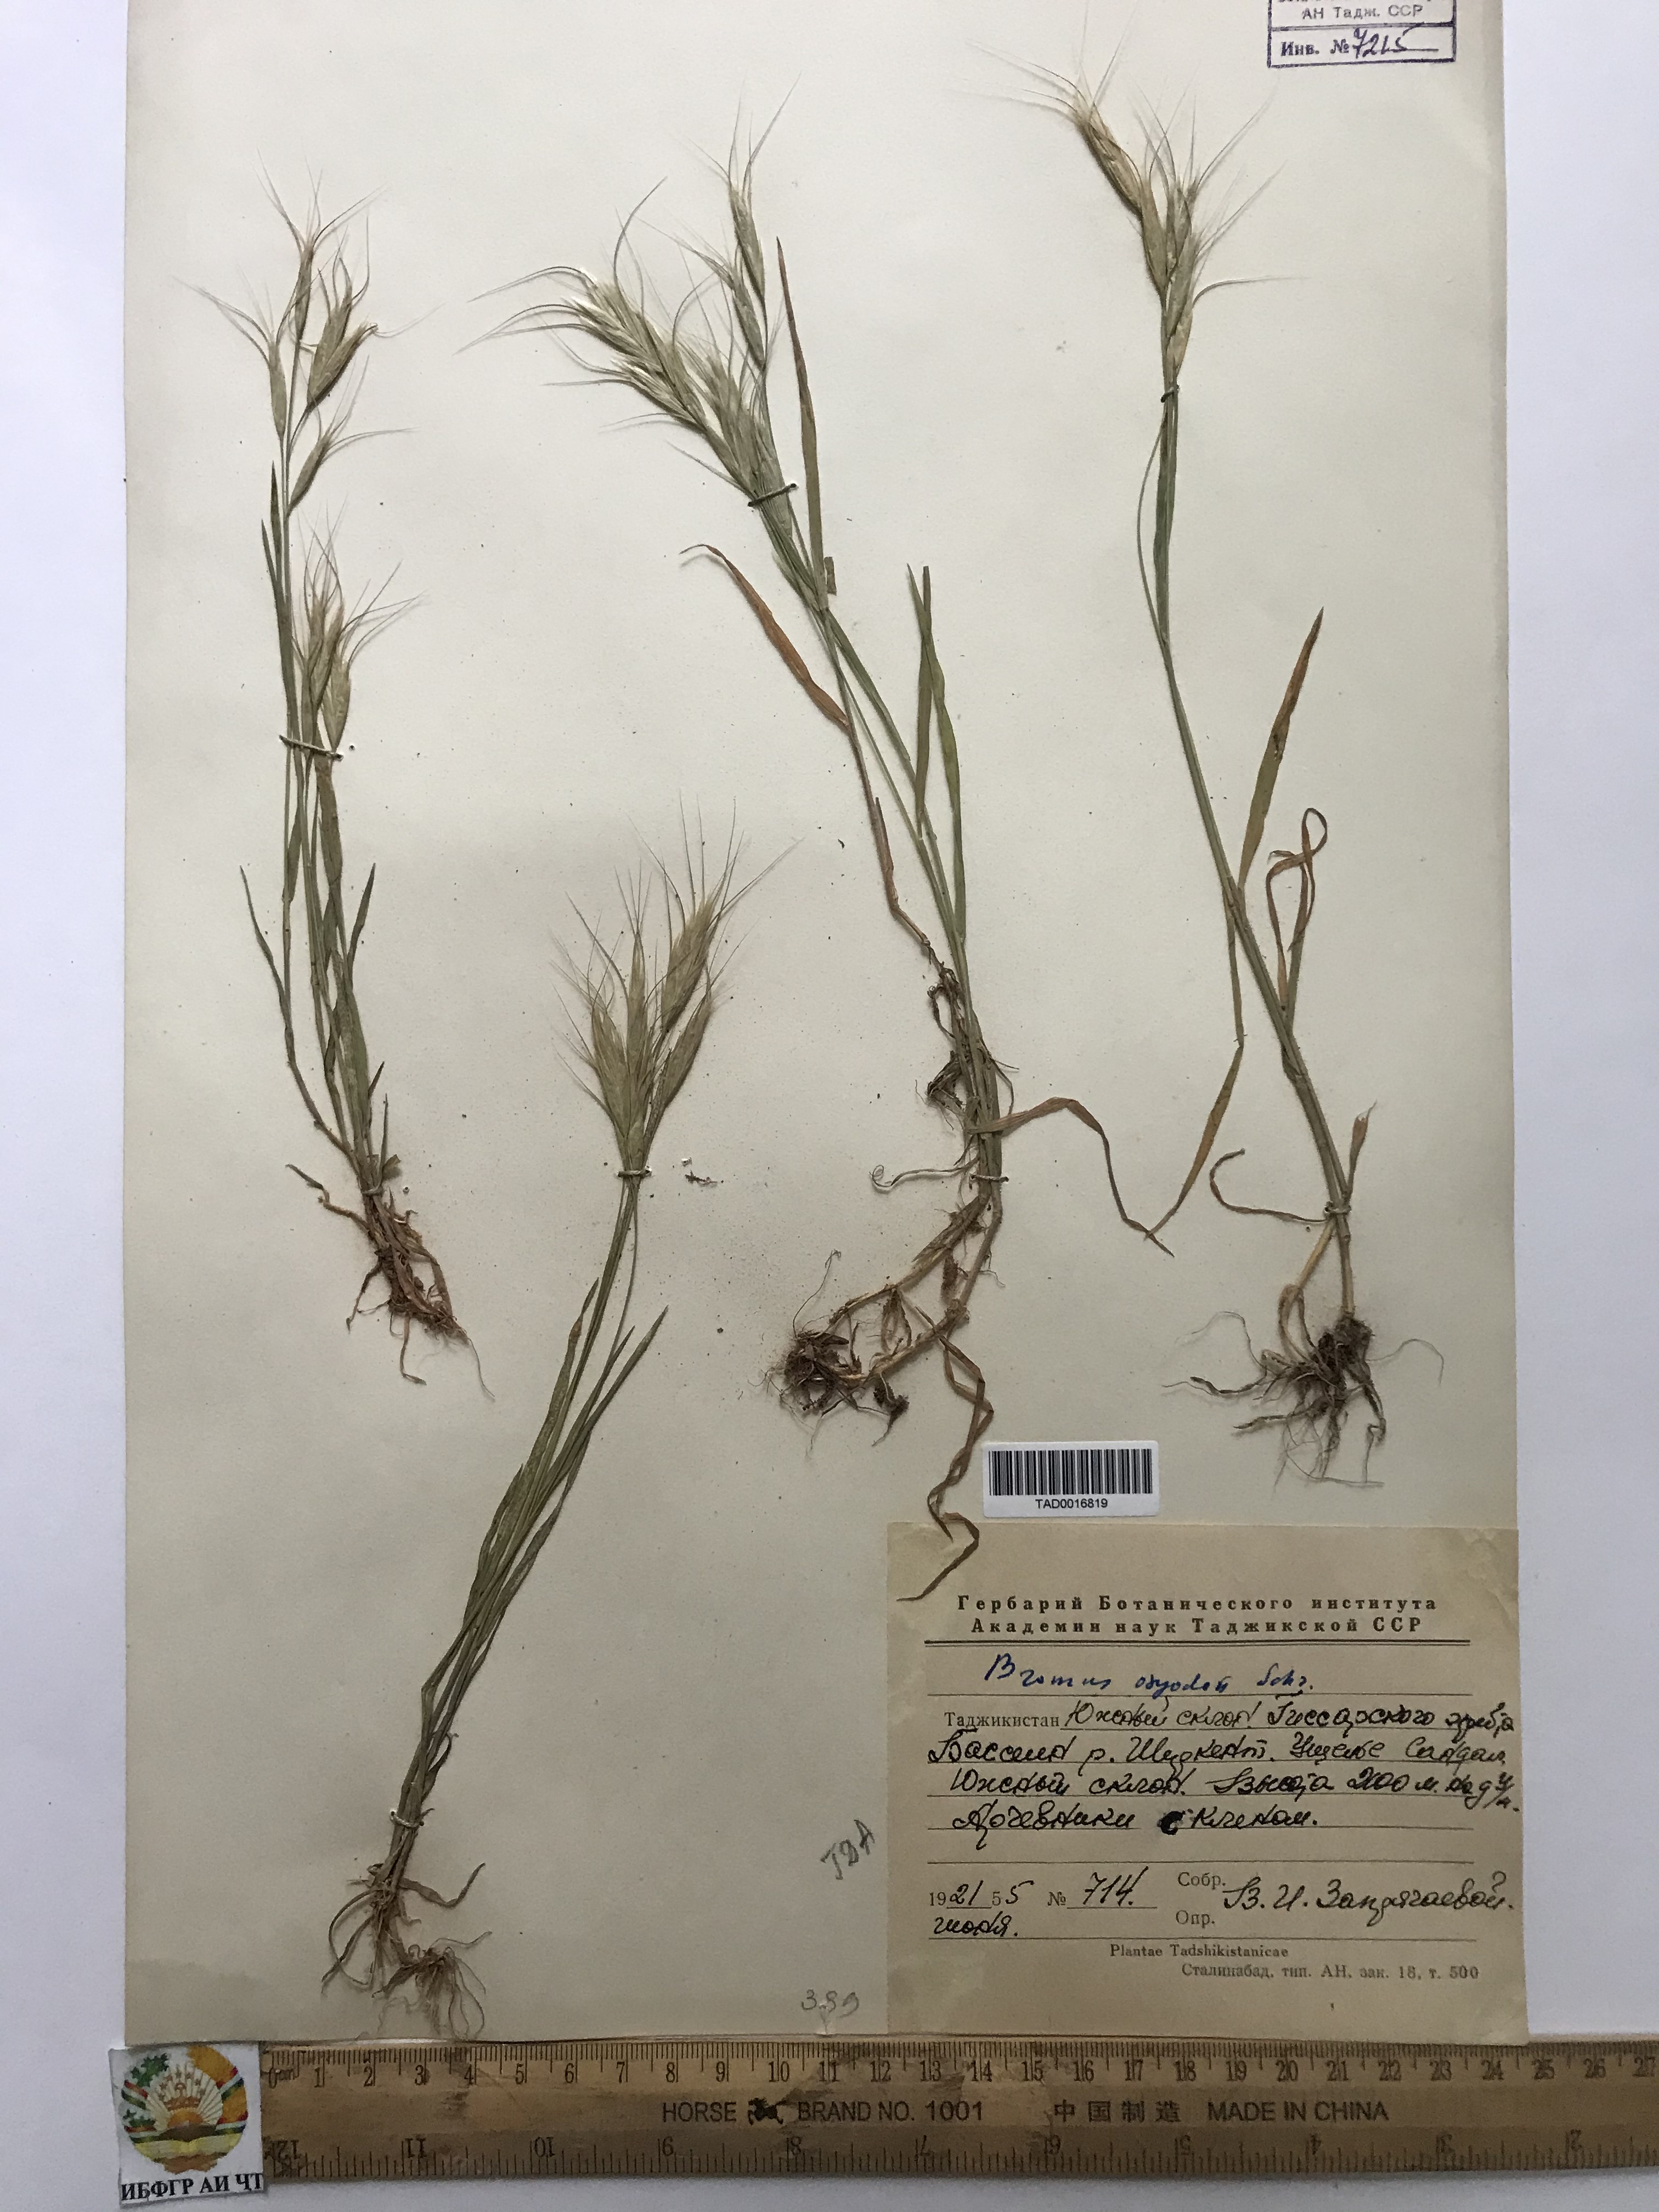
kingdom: Plantae
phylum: Tracheophyta
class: Liliopsida
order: Poales
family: Poaceae
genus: Bromus
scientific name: Bromus oxyodon
